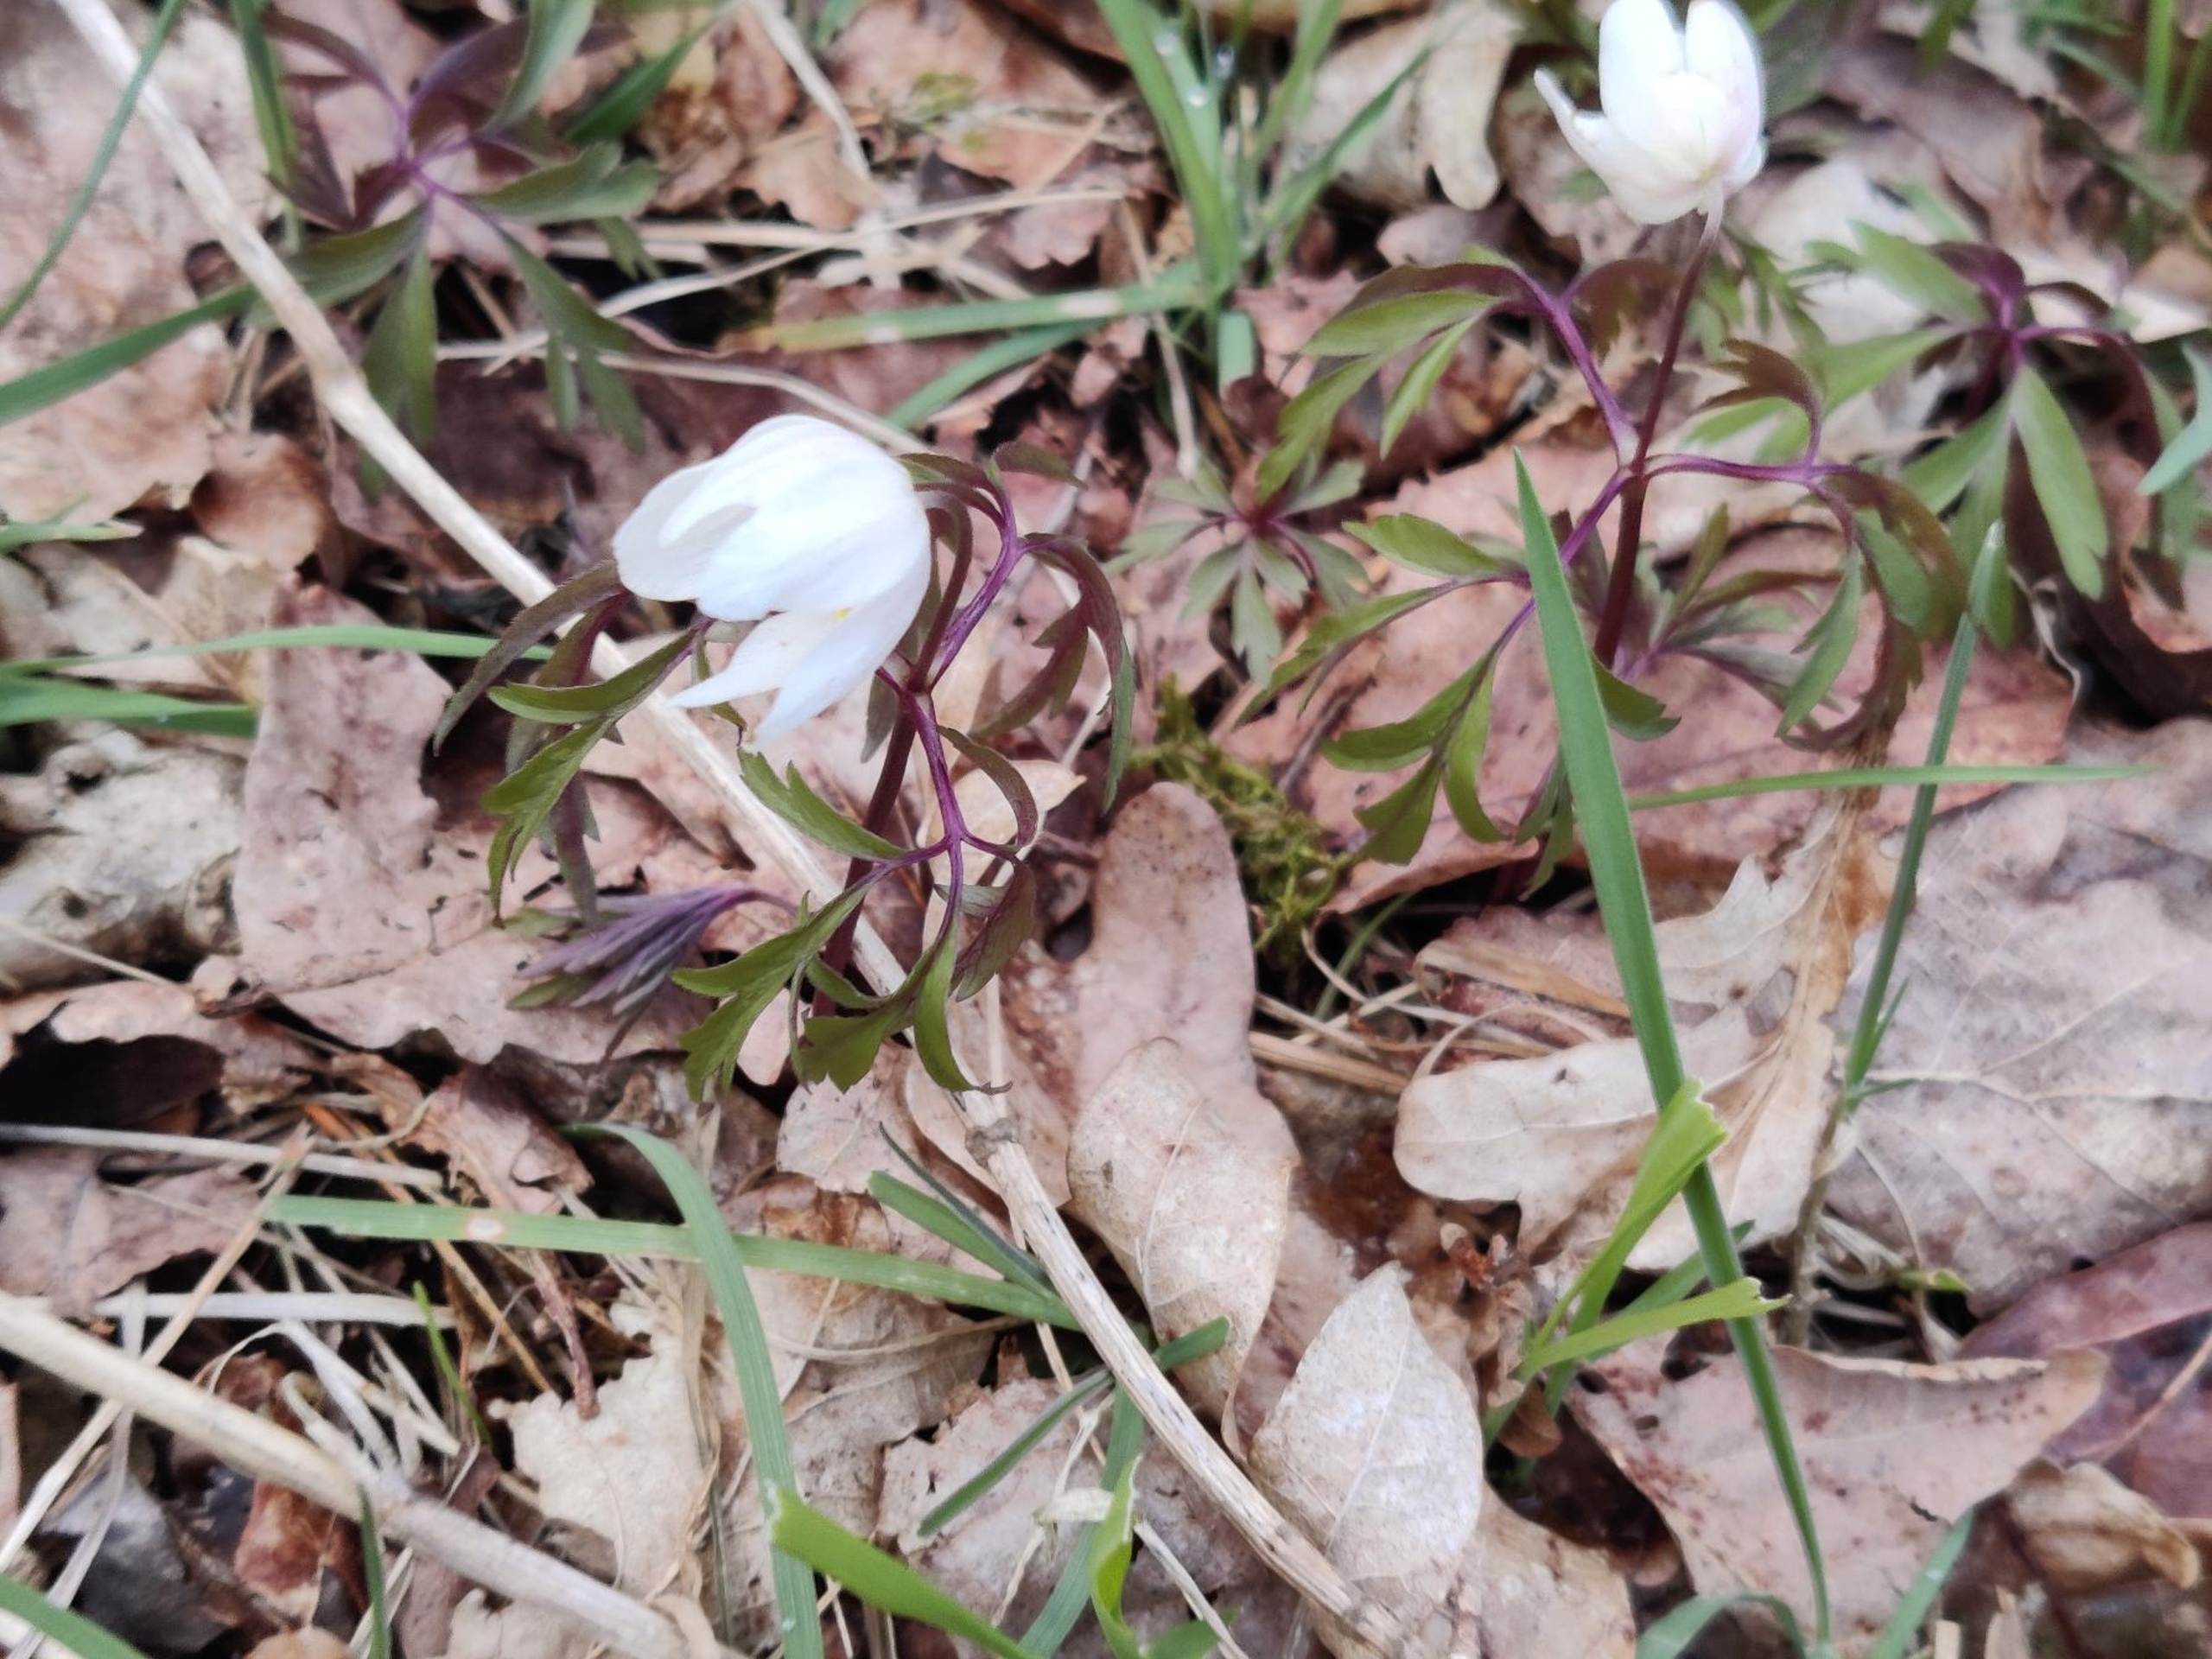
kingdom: Plantae
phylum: Tracheophyta
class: Magnoliopsida
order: Ranunculales
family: Ranunculaceae
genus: Anemone
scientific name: Anemone nemorosa
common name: Hvid anemone
